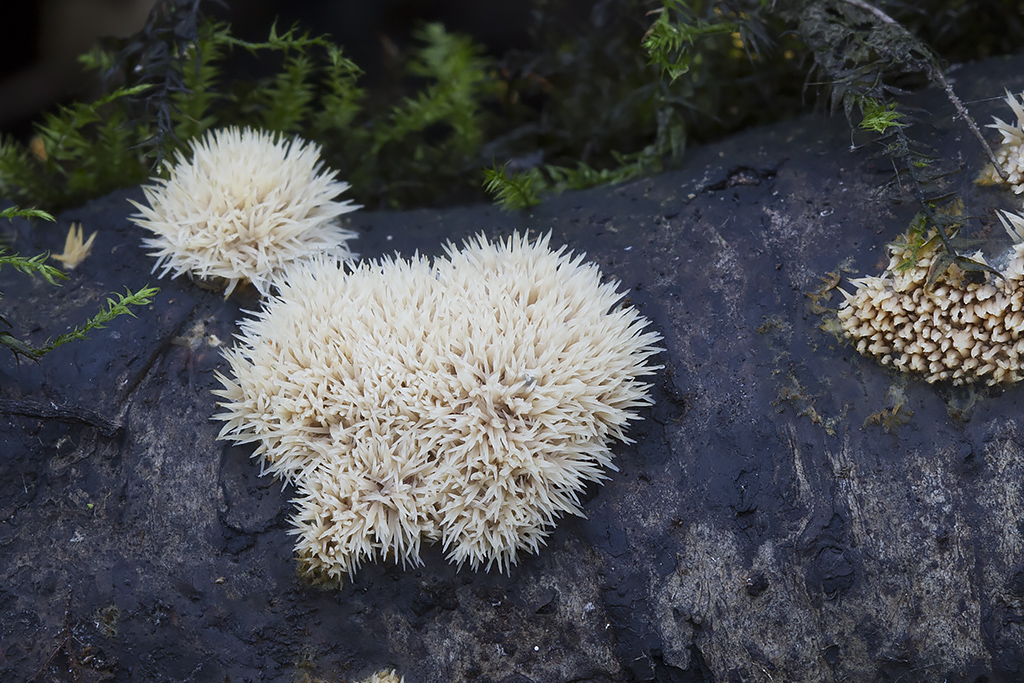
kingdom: Fungi
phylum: Basidiomycota
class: Agaricomycetes
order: Polyporales
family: Meruliaceae
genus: Mycoaciella
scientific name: Mycoaciella bispora
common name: stalaktit-vokspig
